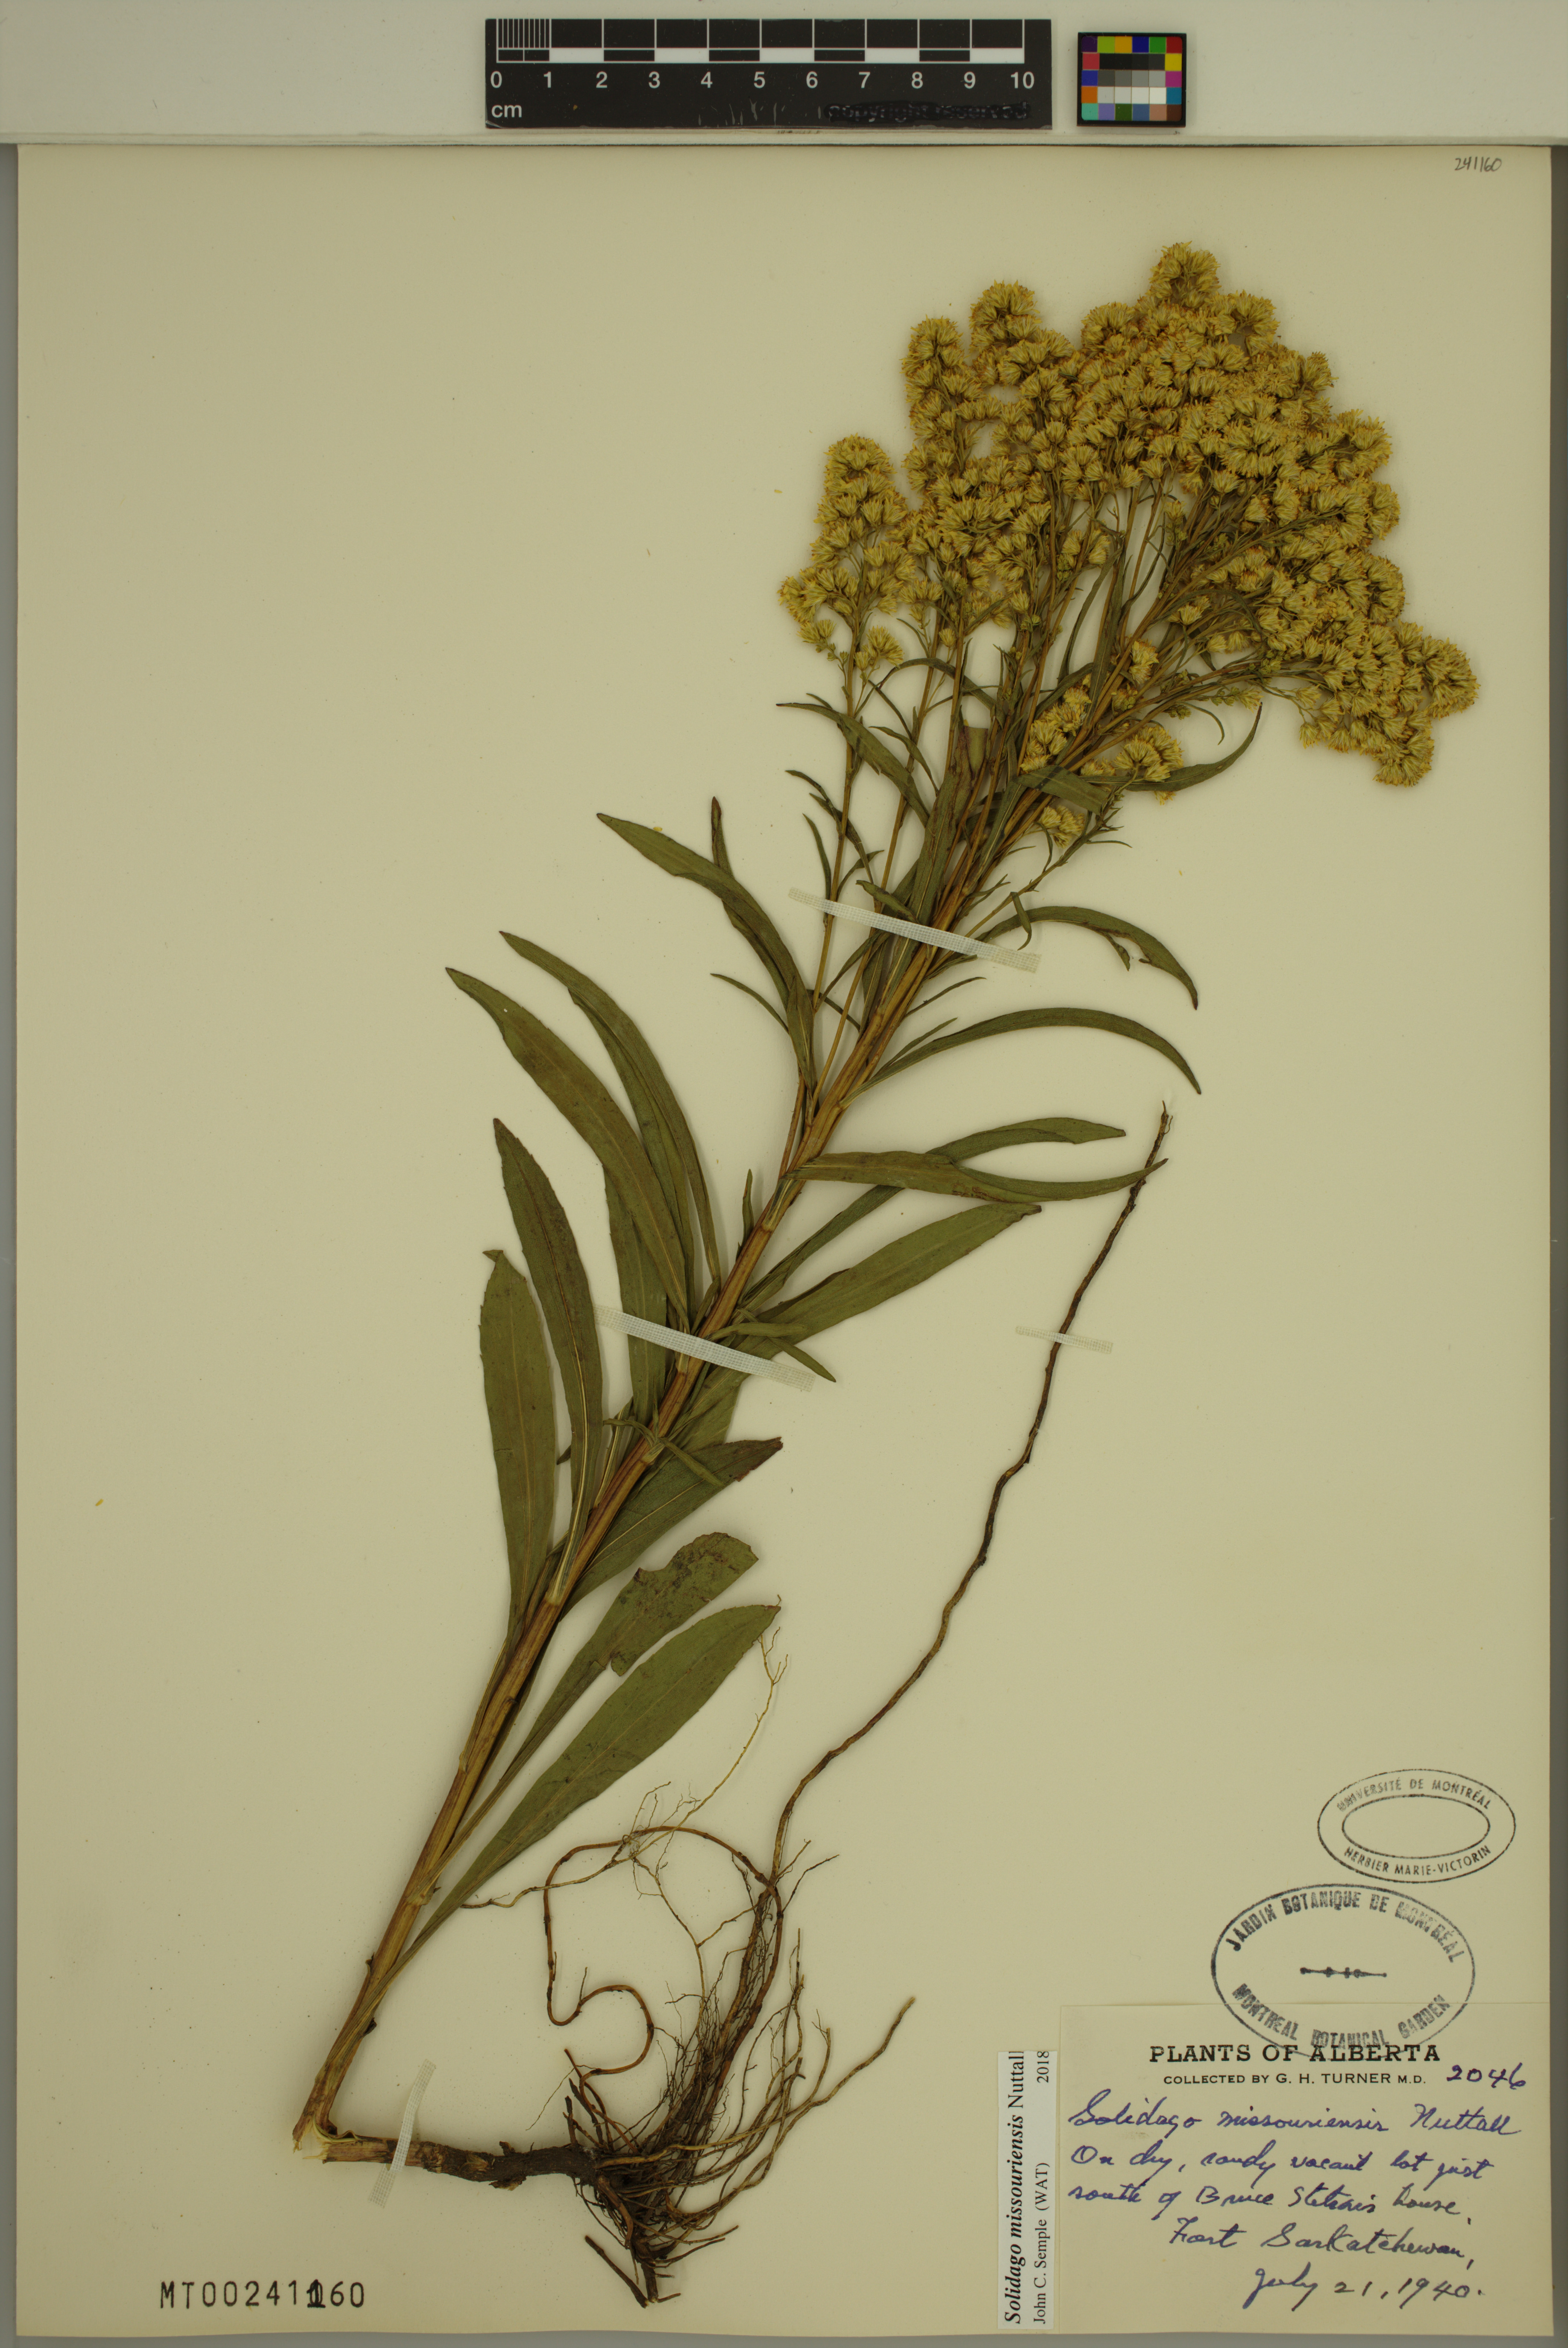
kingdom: Plantae
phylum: Tracheophyta
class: Magnoliopsida
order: Asterales
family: Asteraceae
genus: Solidago
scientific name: Solidago missouriensis
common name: Prairie goldenrod
